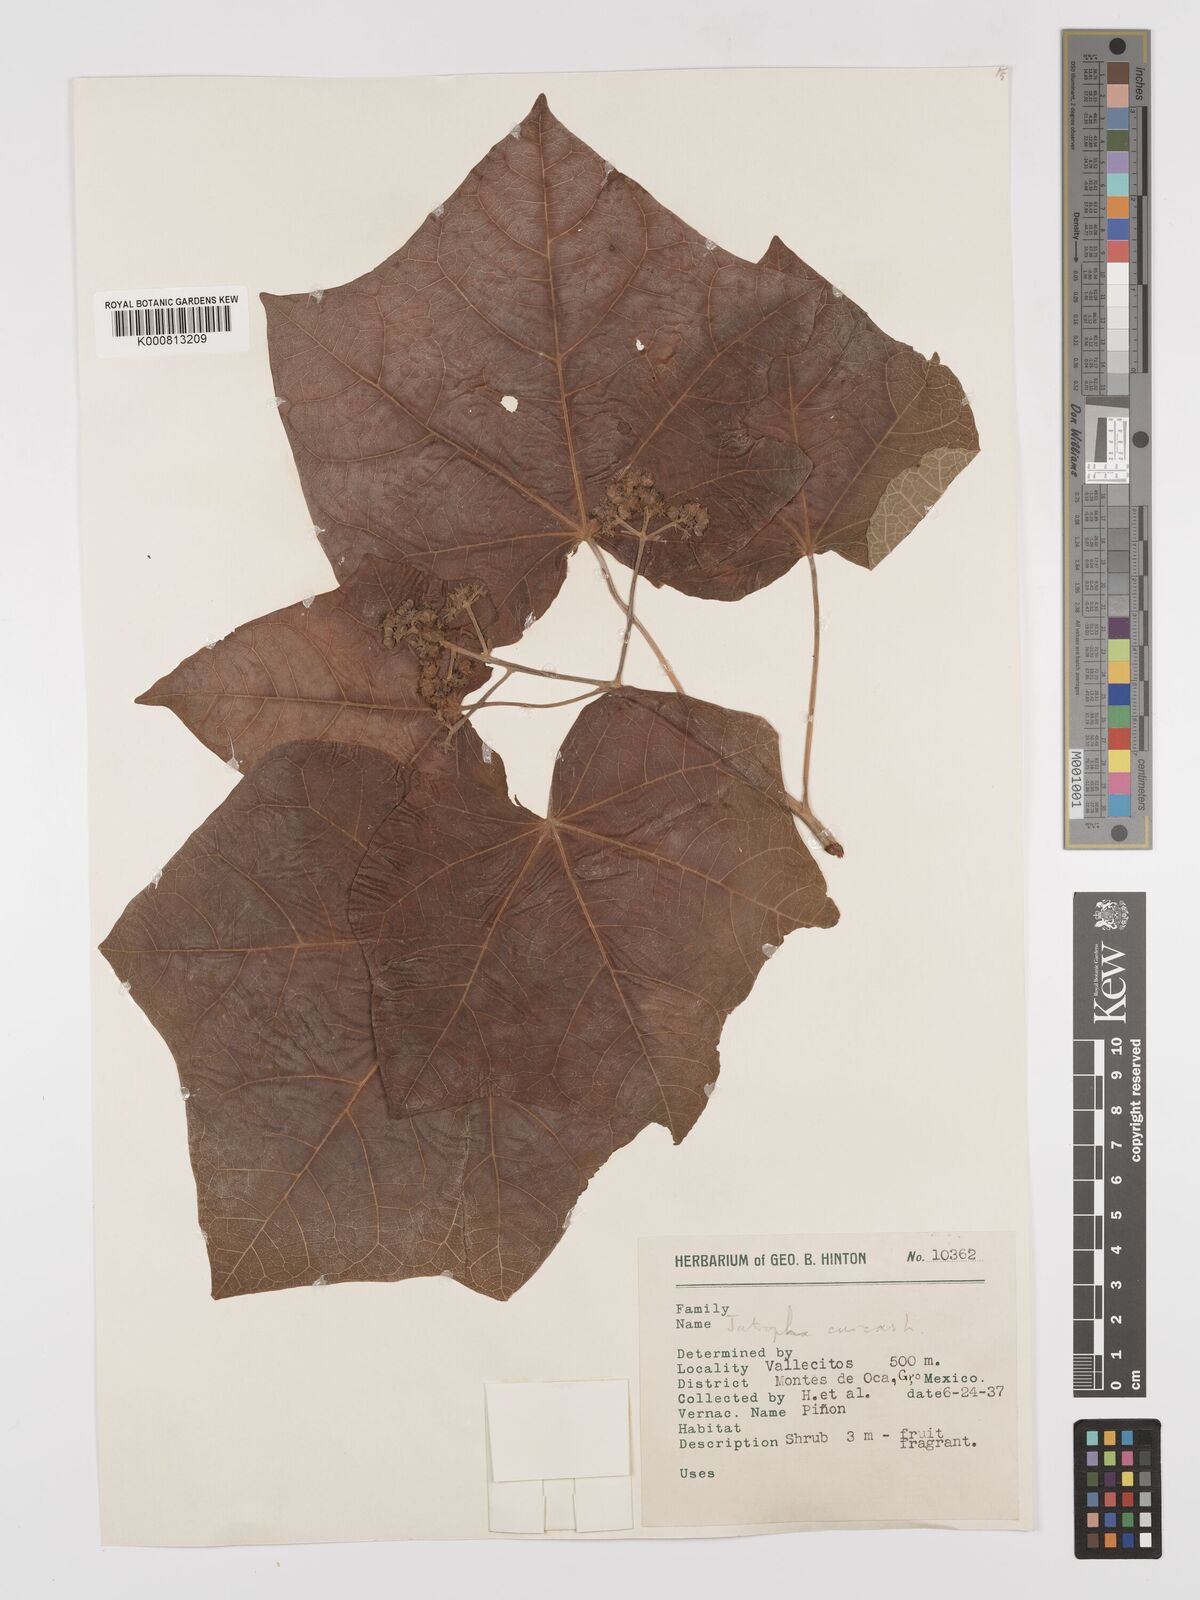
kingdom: Plantae
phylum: Tracheophyta
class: Magnoliopsida
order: Malpighiales
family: Euphorbiaceae
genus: Jatropha
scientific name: Jatropha curcas
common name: Barbados nut
